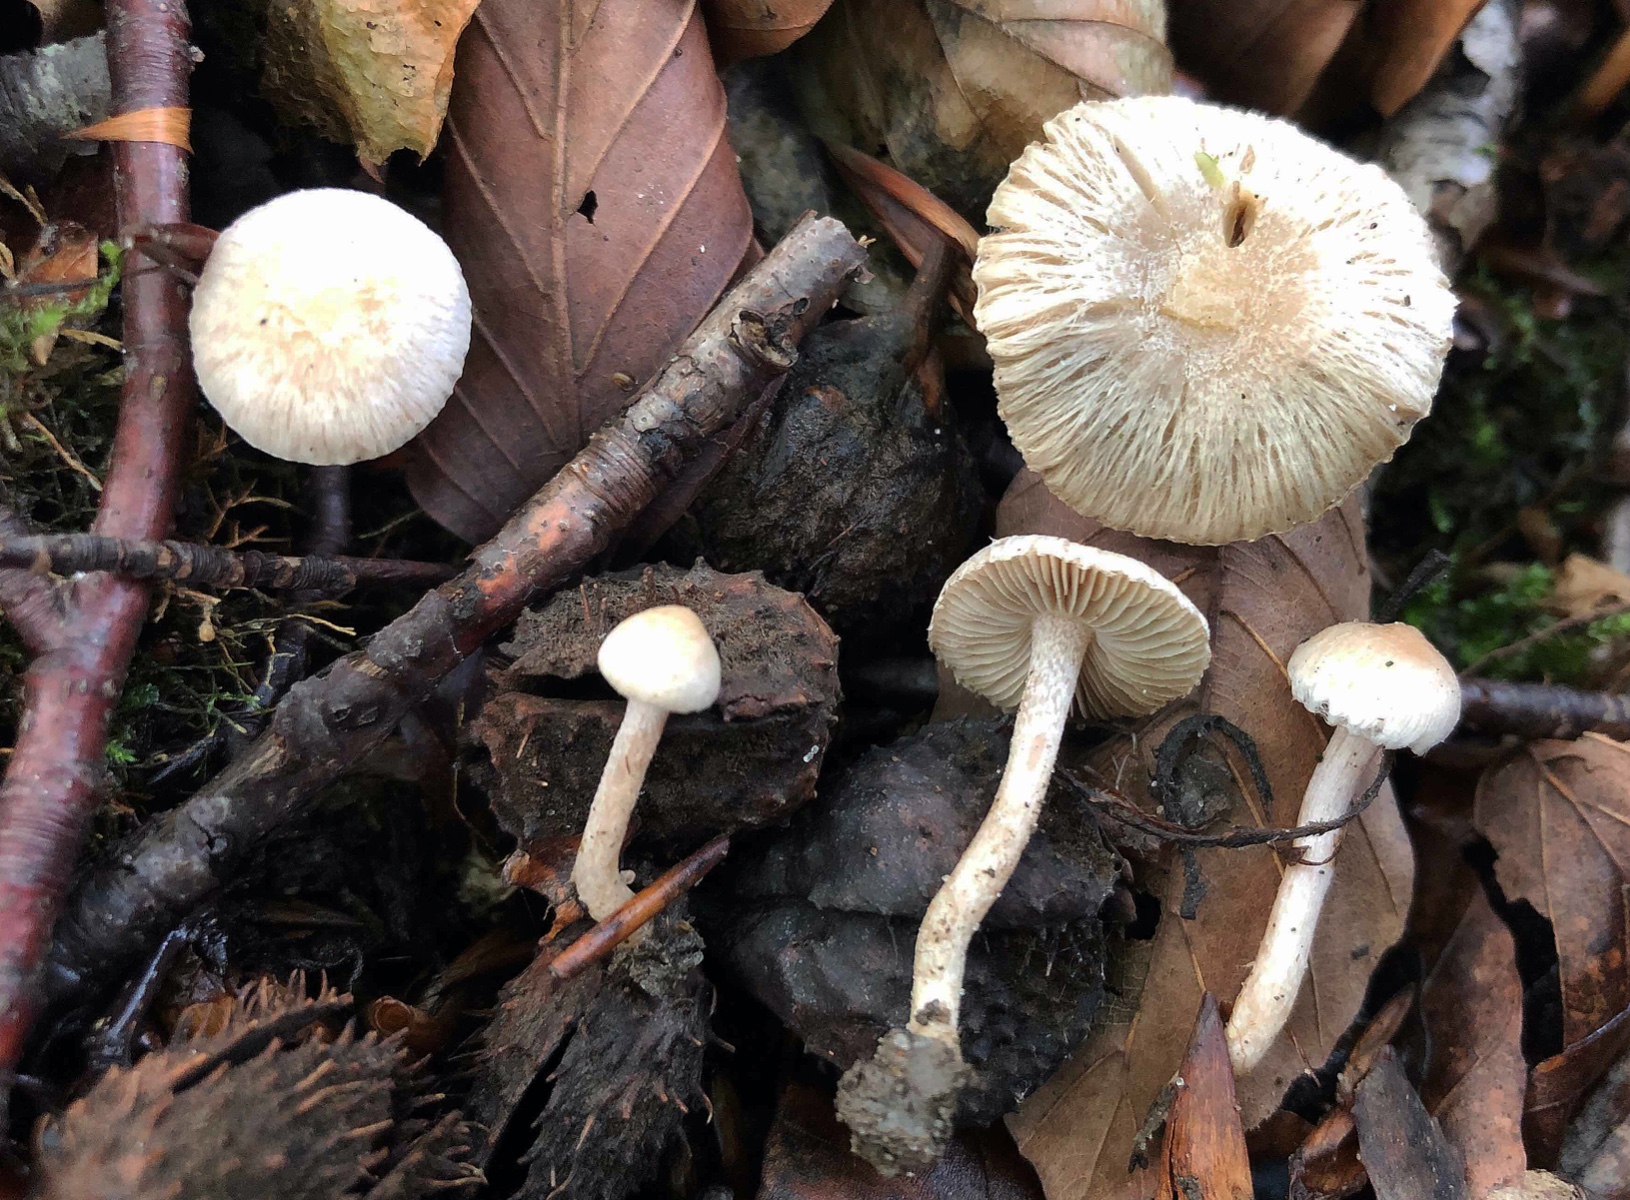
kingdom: Fungi
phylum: Basidiomycota
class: Agaricomycetes
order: Agaricales
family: Inocybaceae
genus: Inocybe
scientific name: Inocybe huijsmanii
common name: rosazonet trævlhat
